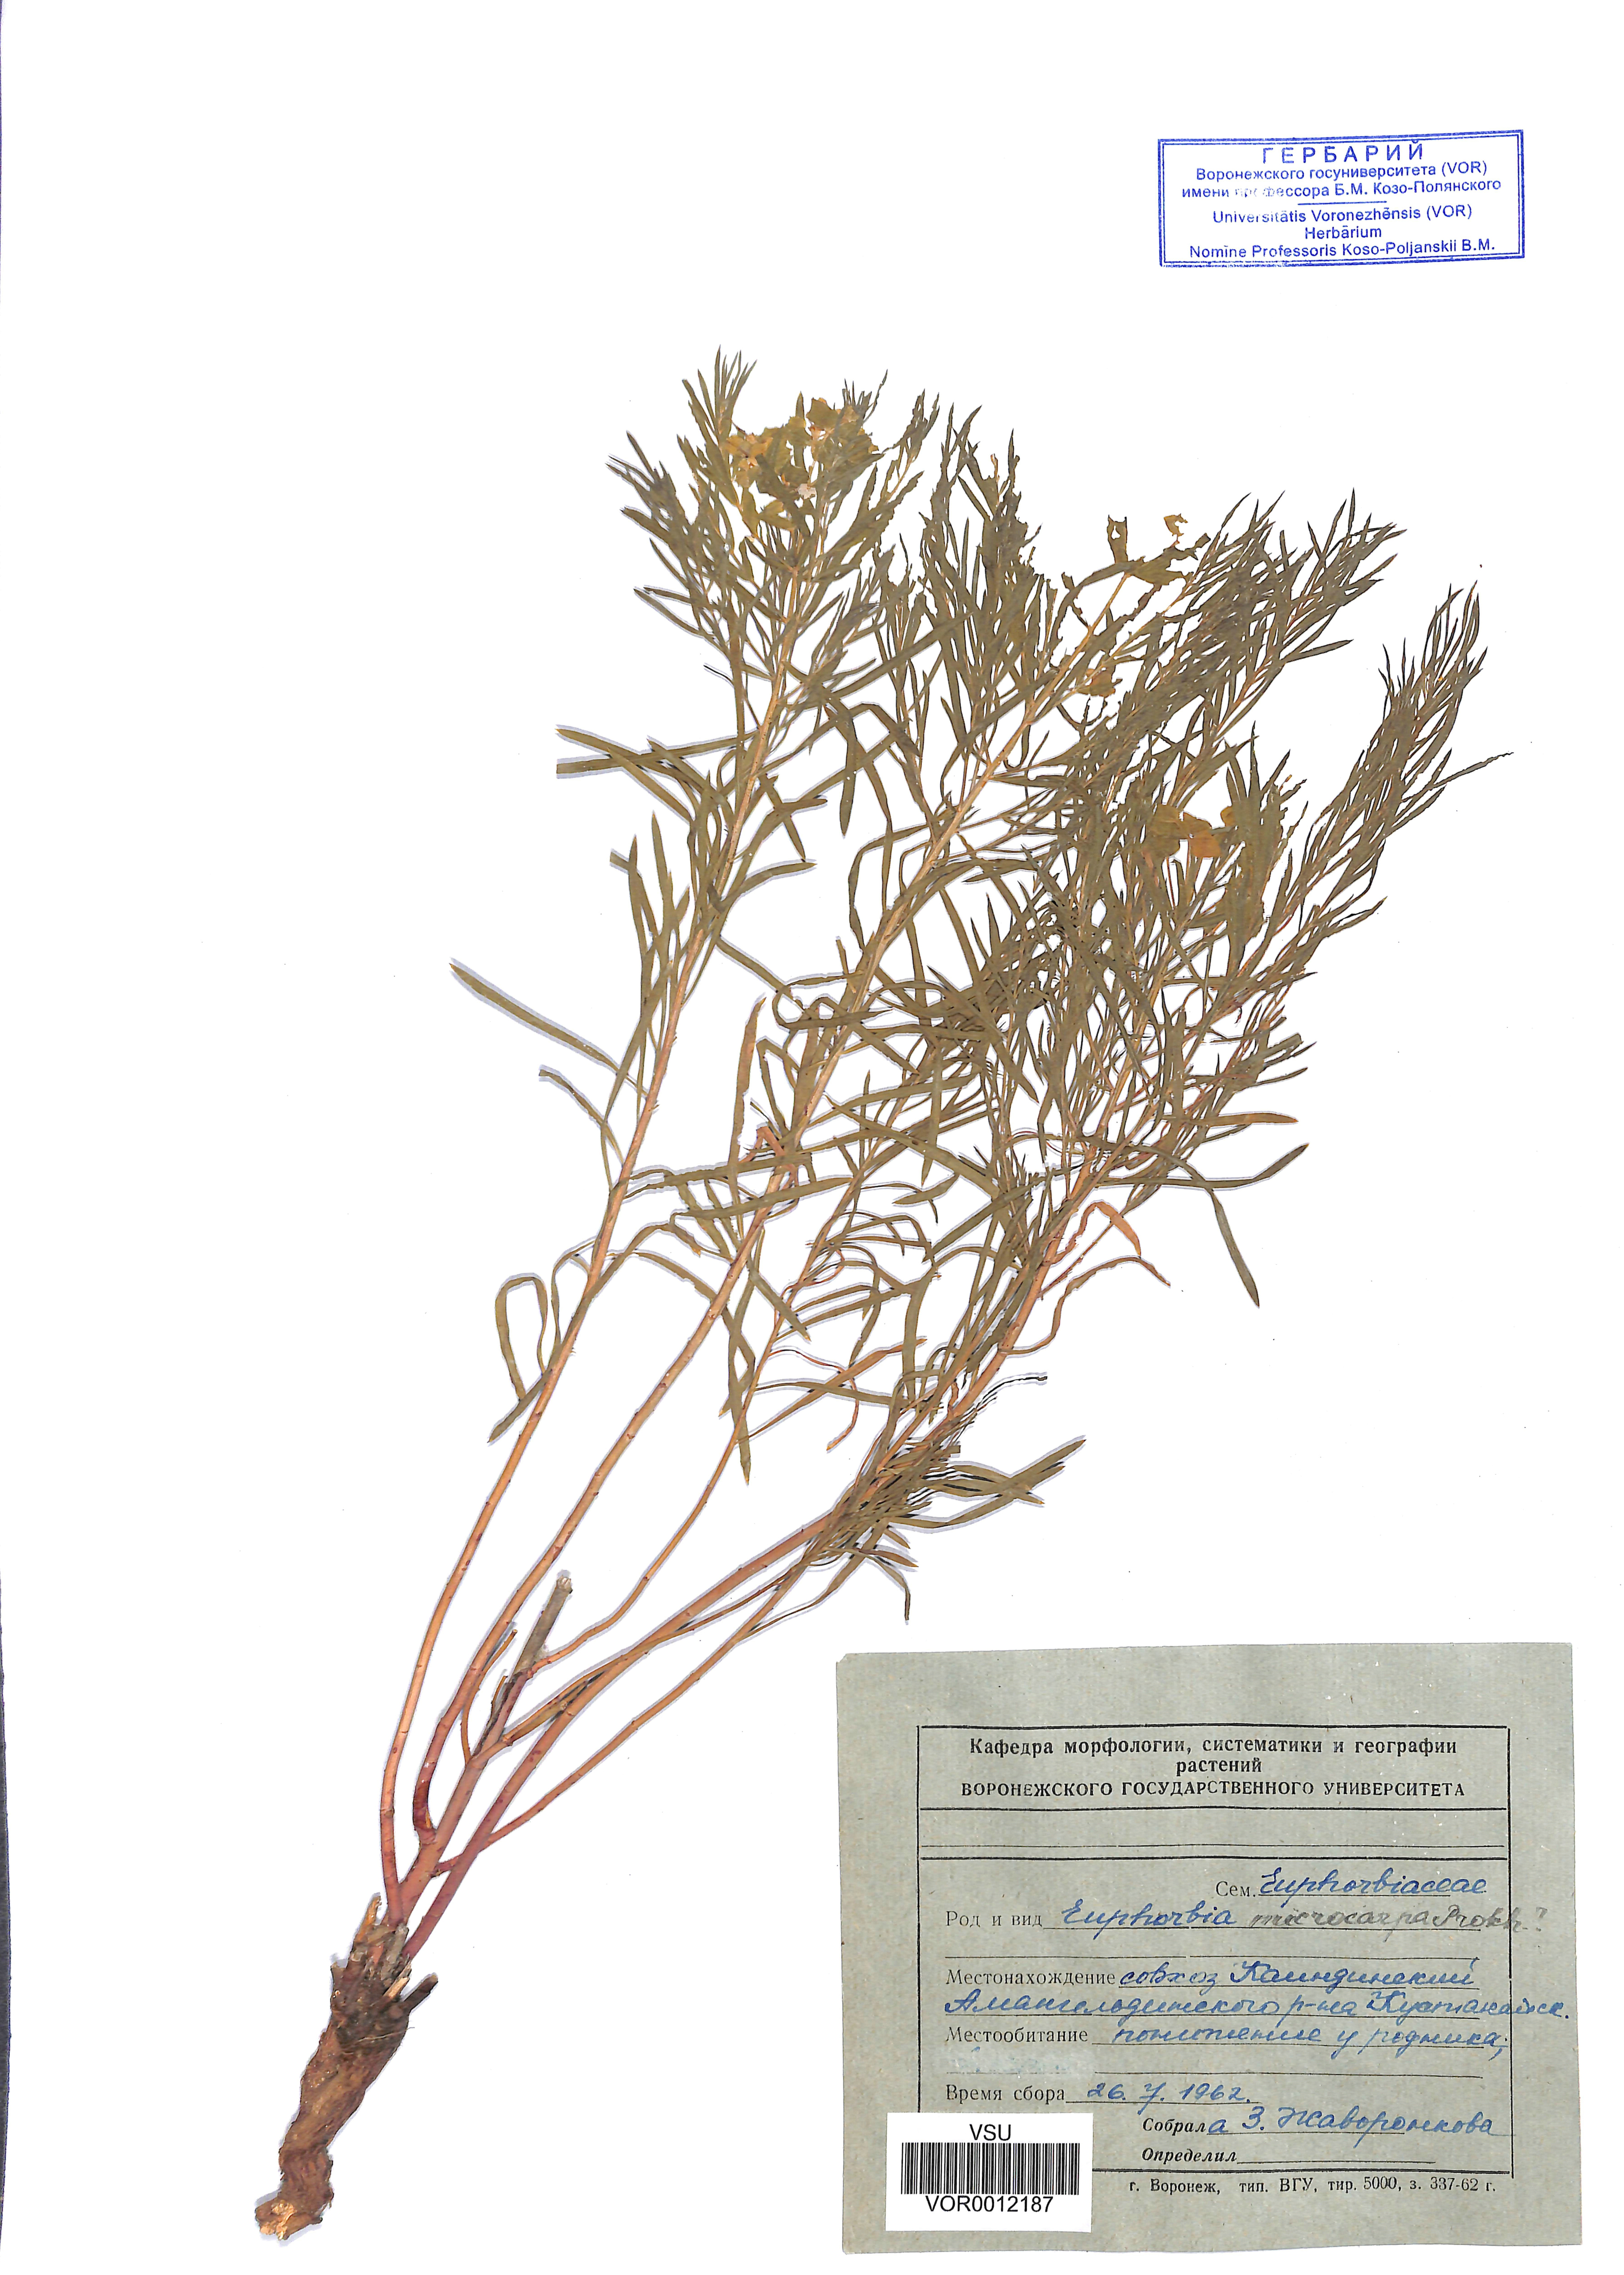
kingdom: Plantae
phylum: Tracheophyta
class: Magnoliopsida
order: Malpighiales
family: Euphorbiaceae
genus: Euphorbia
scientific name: Euphorbia macrocarpa
